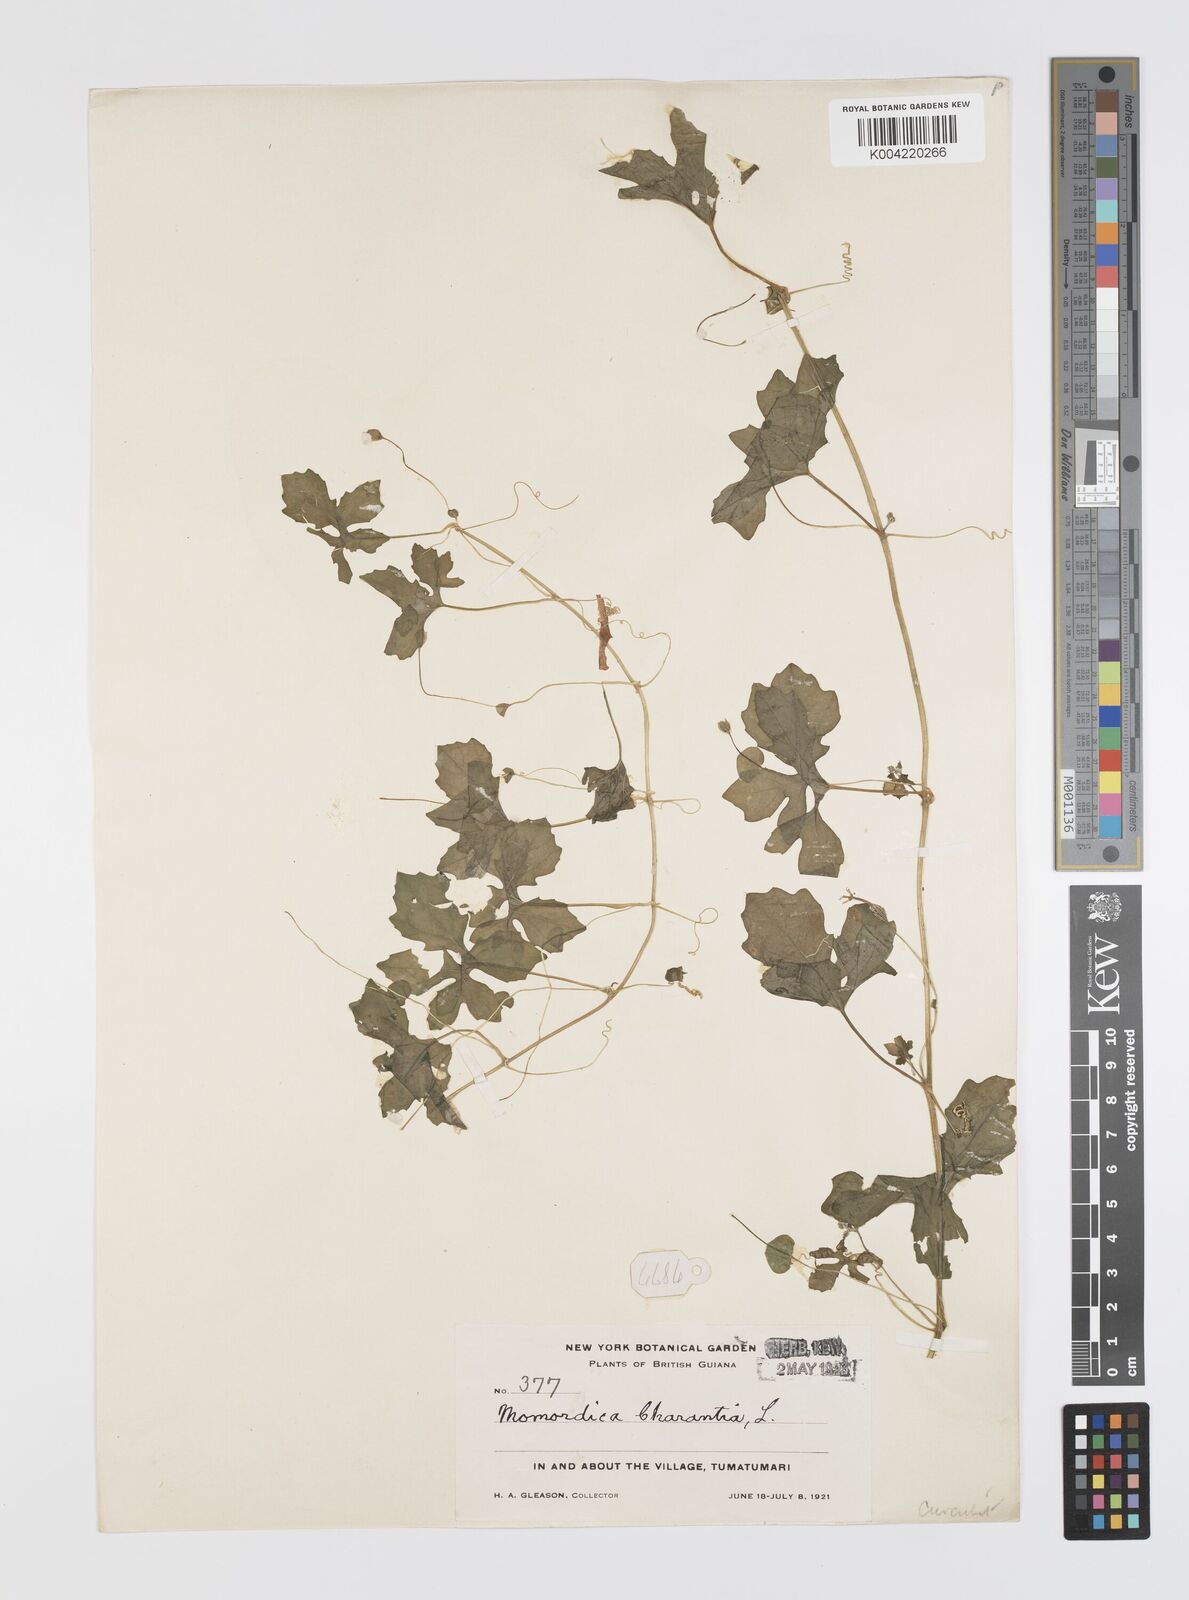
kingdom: Plantae
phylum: Tracheophyta
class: Magnoliopsida
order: Cucurbitales
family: Cucurbitaceae
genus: Momordica
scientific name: Momordica charantia
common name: Balsampear
